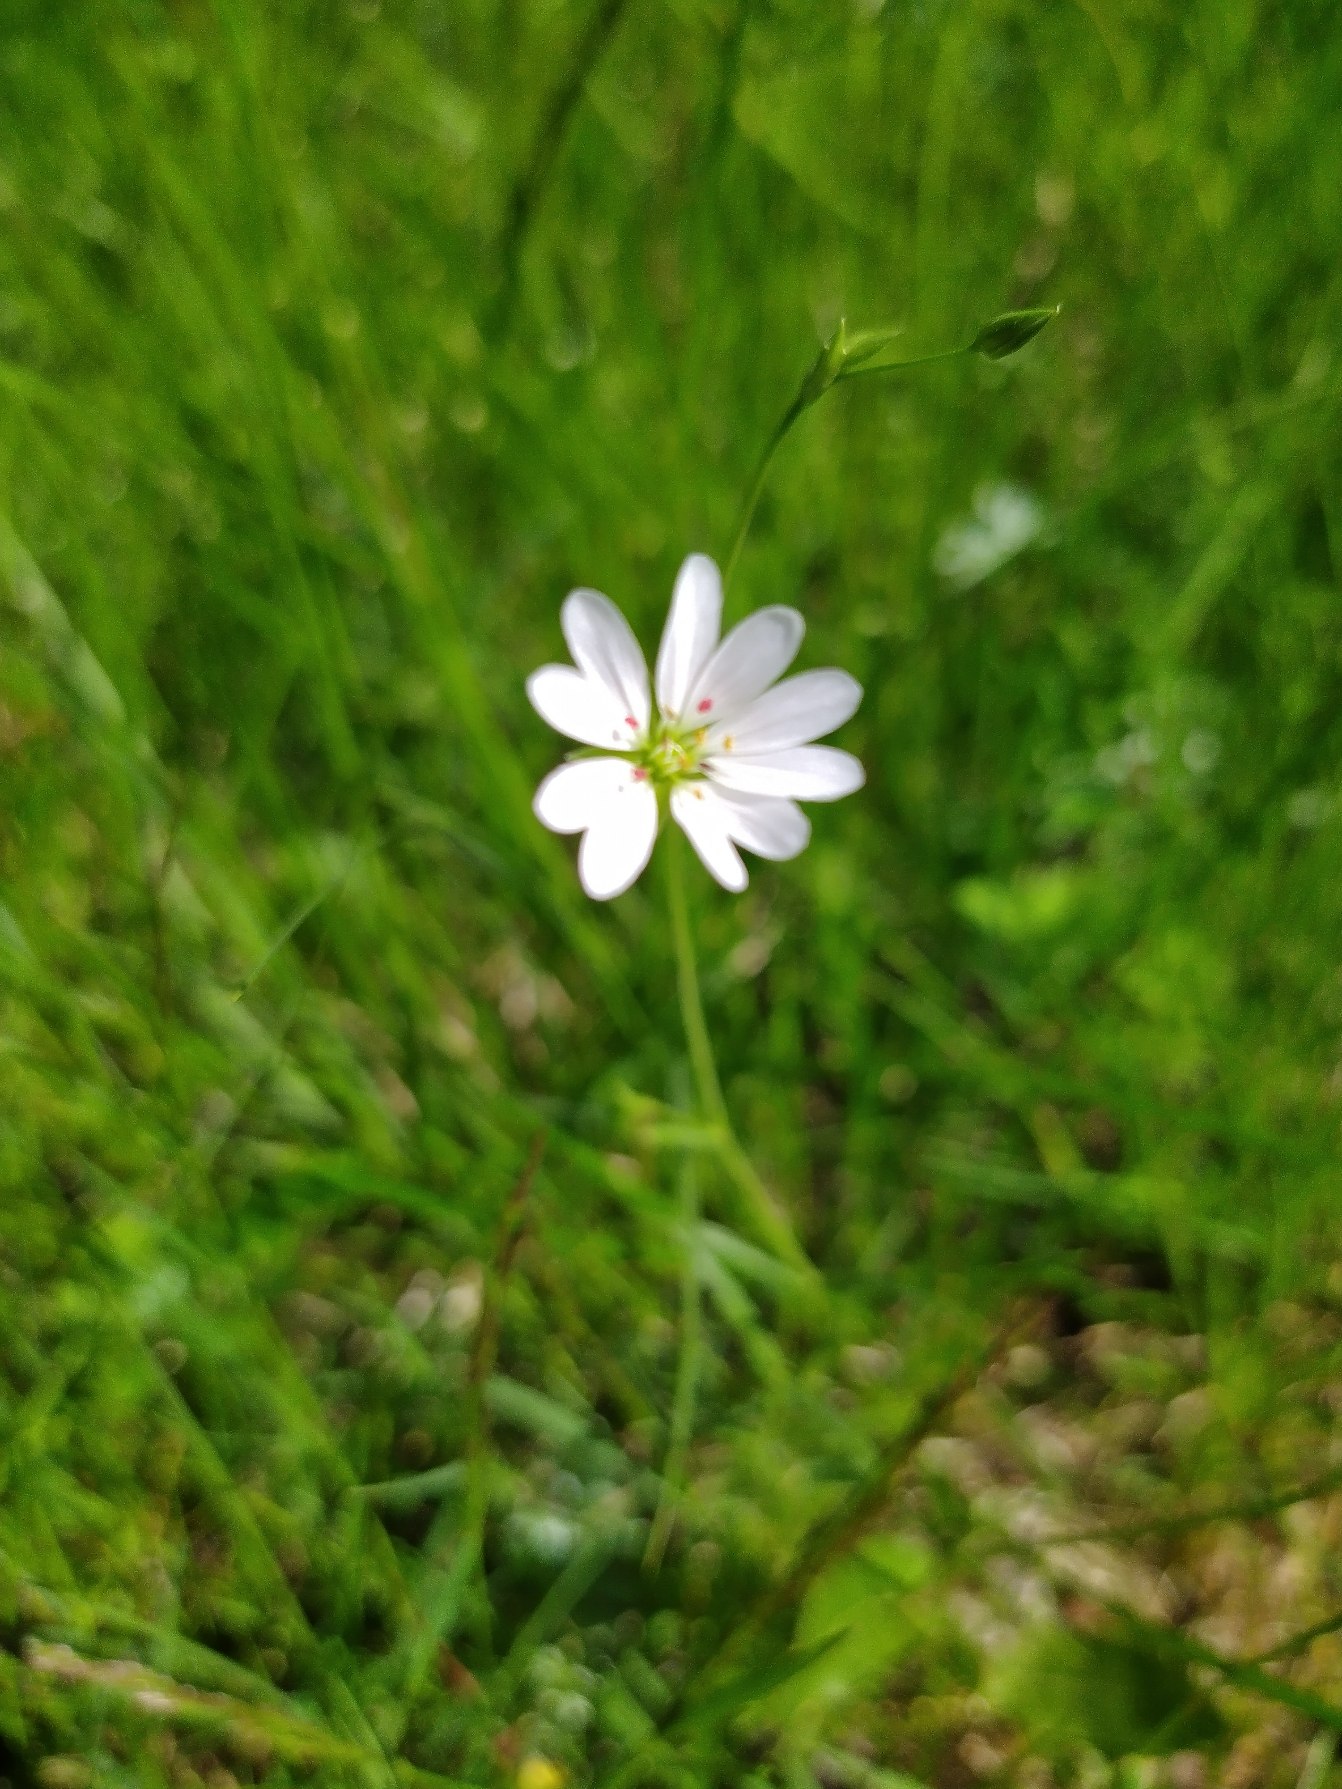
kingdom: Plantae
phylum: Tracheophyta
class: Magnoliopsida
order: Caryophyllales
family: Caryophyllaceae
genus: Stellaria
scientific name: Stellaria graminea
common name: Græsbladet fladstjerne
